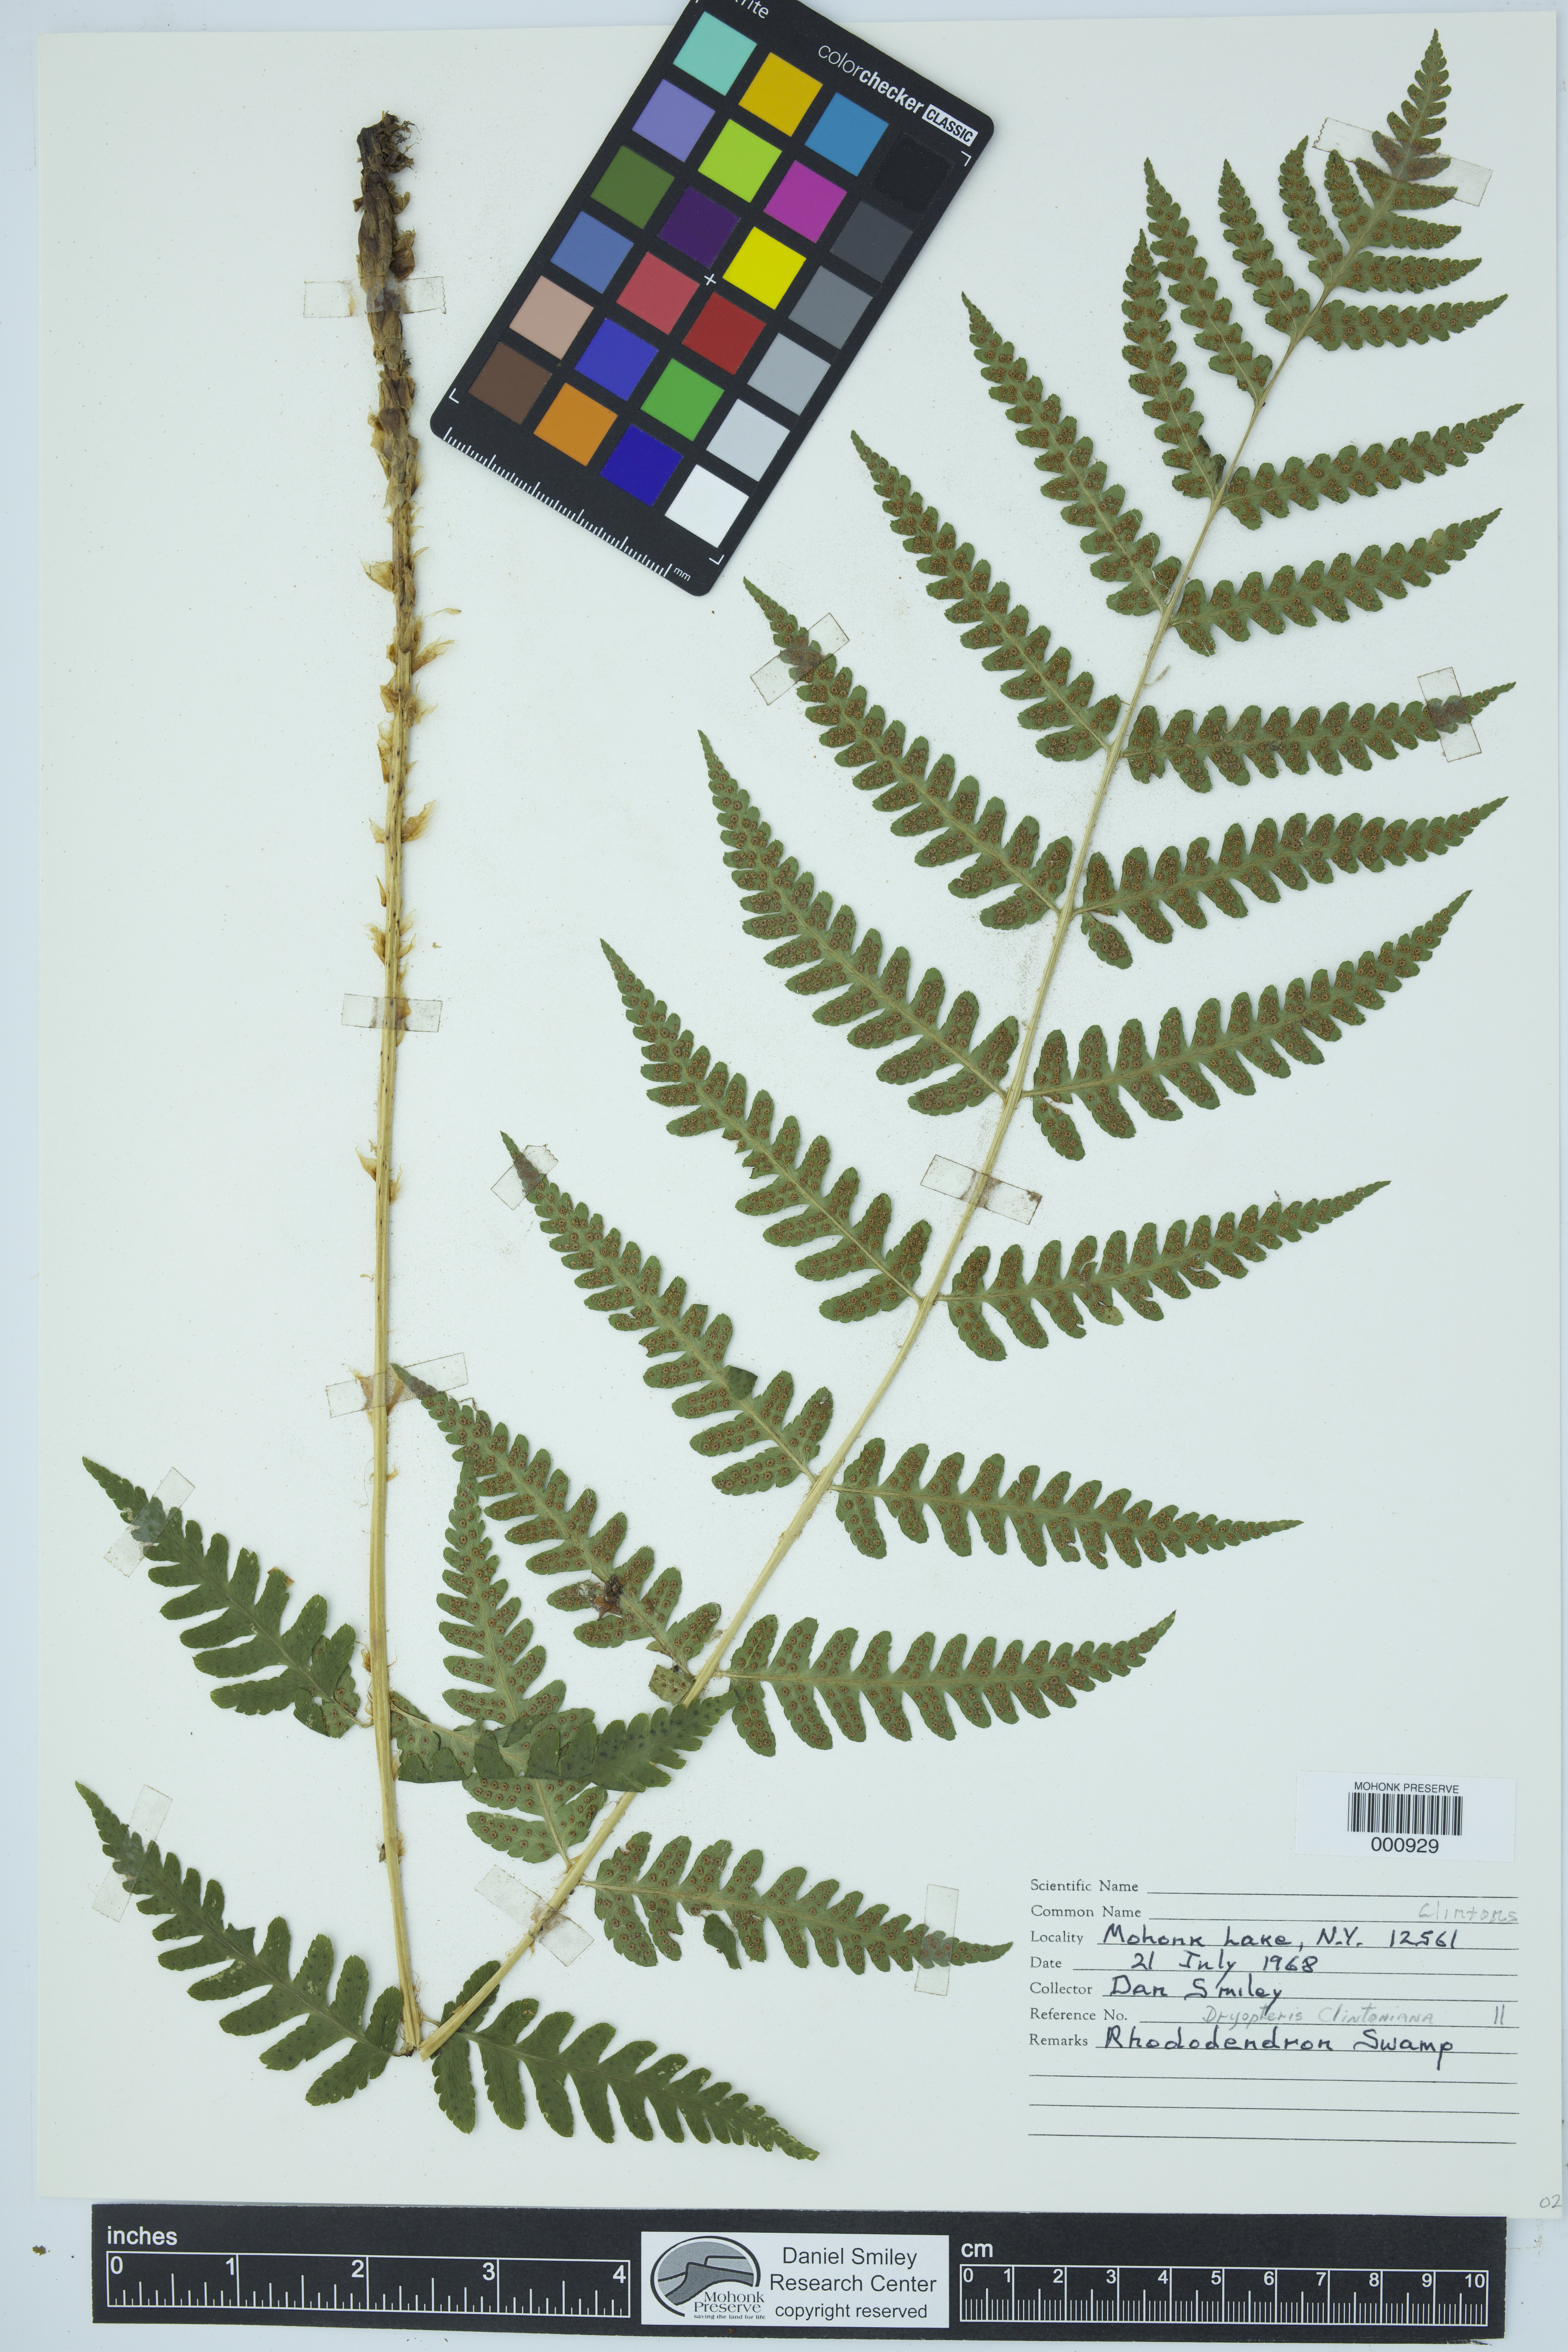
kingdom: Plantae
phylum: Tracheophyta
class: Polypodiopsida
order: Polypodiales
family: Dryopteridaceae
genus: Dryopteris
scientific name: Dryopteris carthusiana
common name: Narrow buckler-fern
